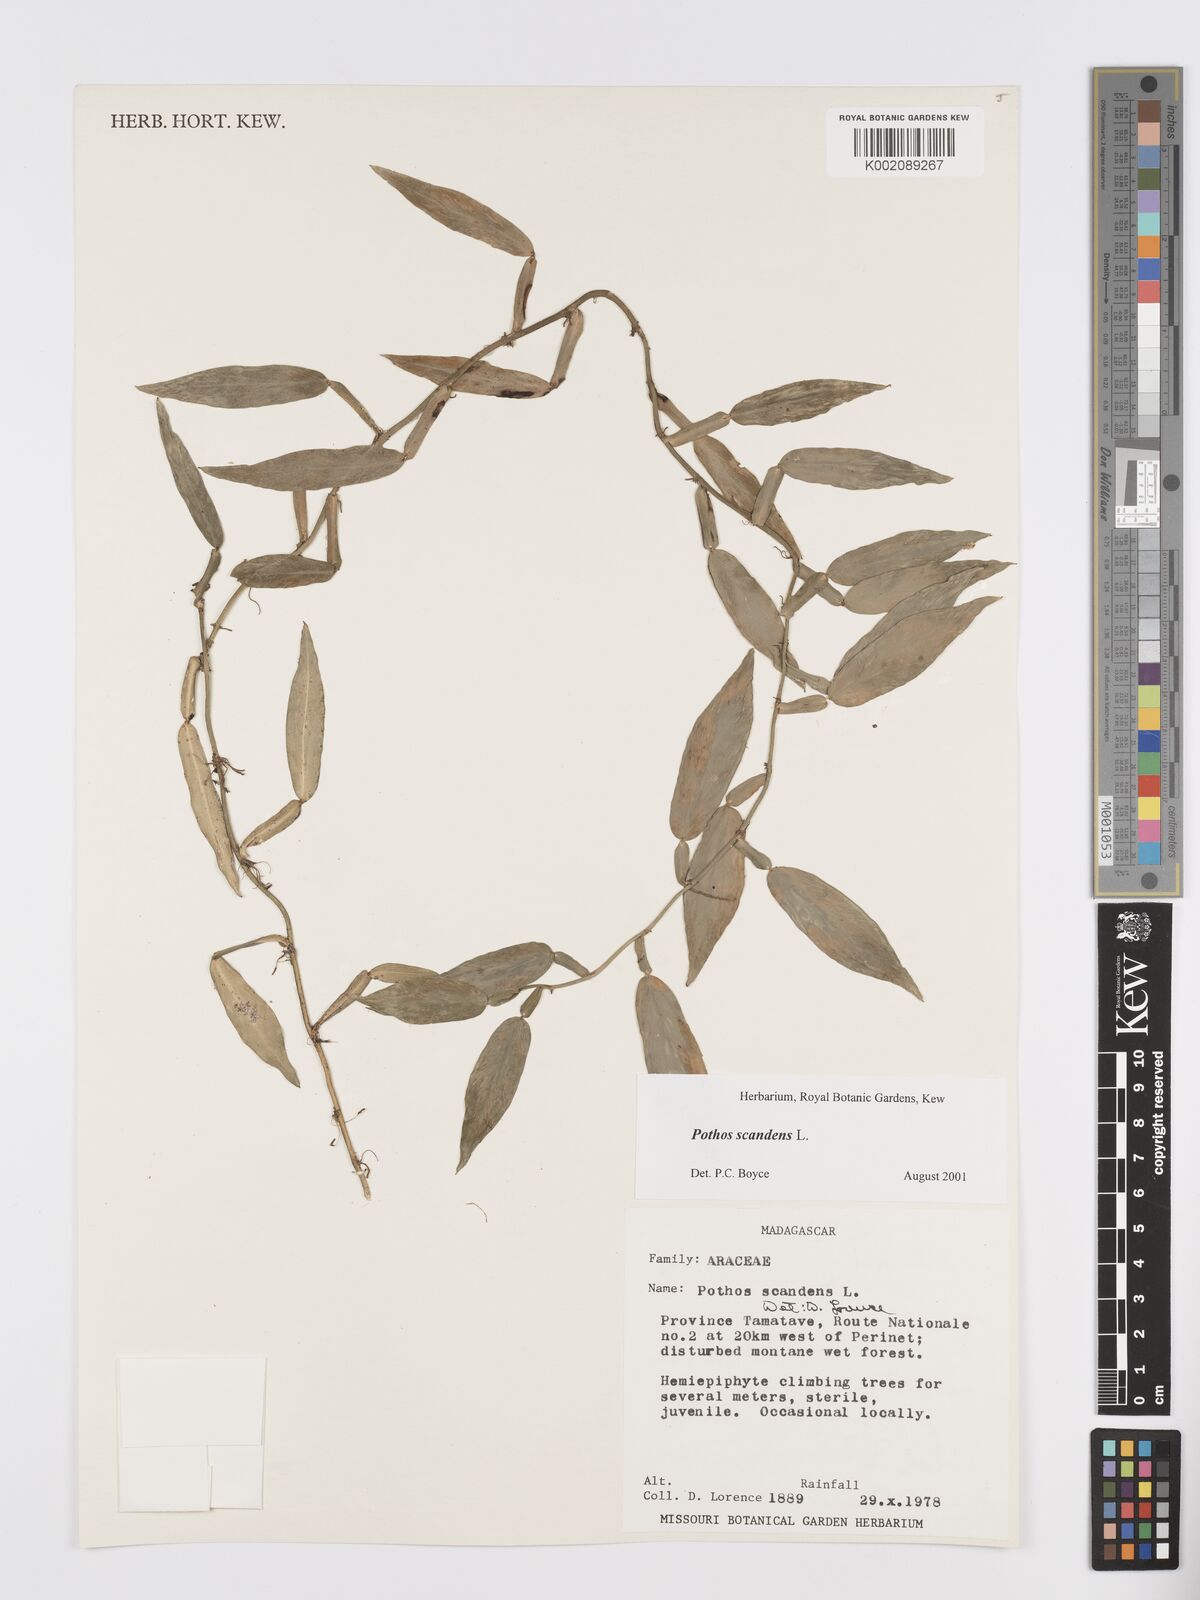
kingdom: Plantae
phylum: Tracheophyta
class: Liliopsida
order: Alismatales
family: Araceae
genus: Pothos
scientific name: Pothos scandens
